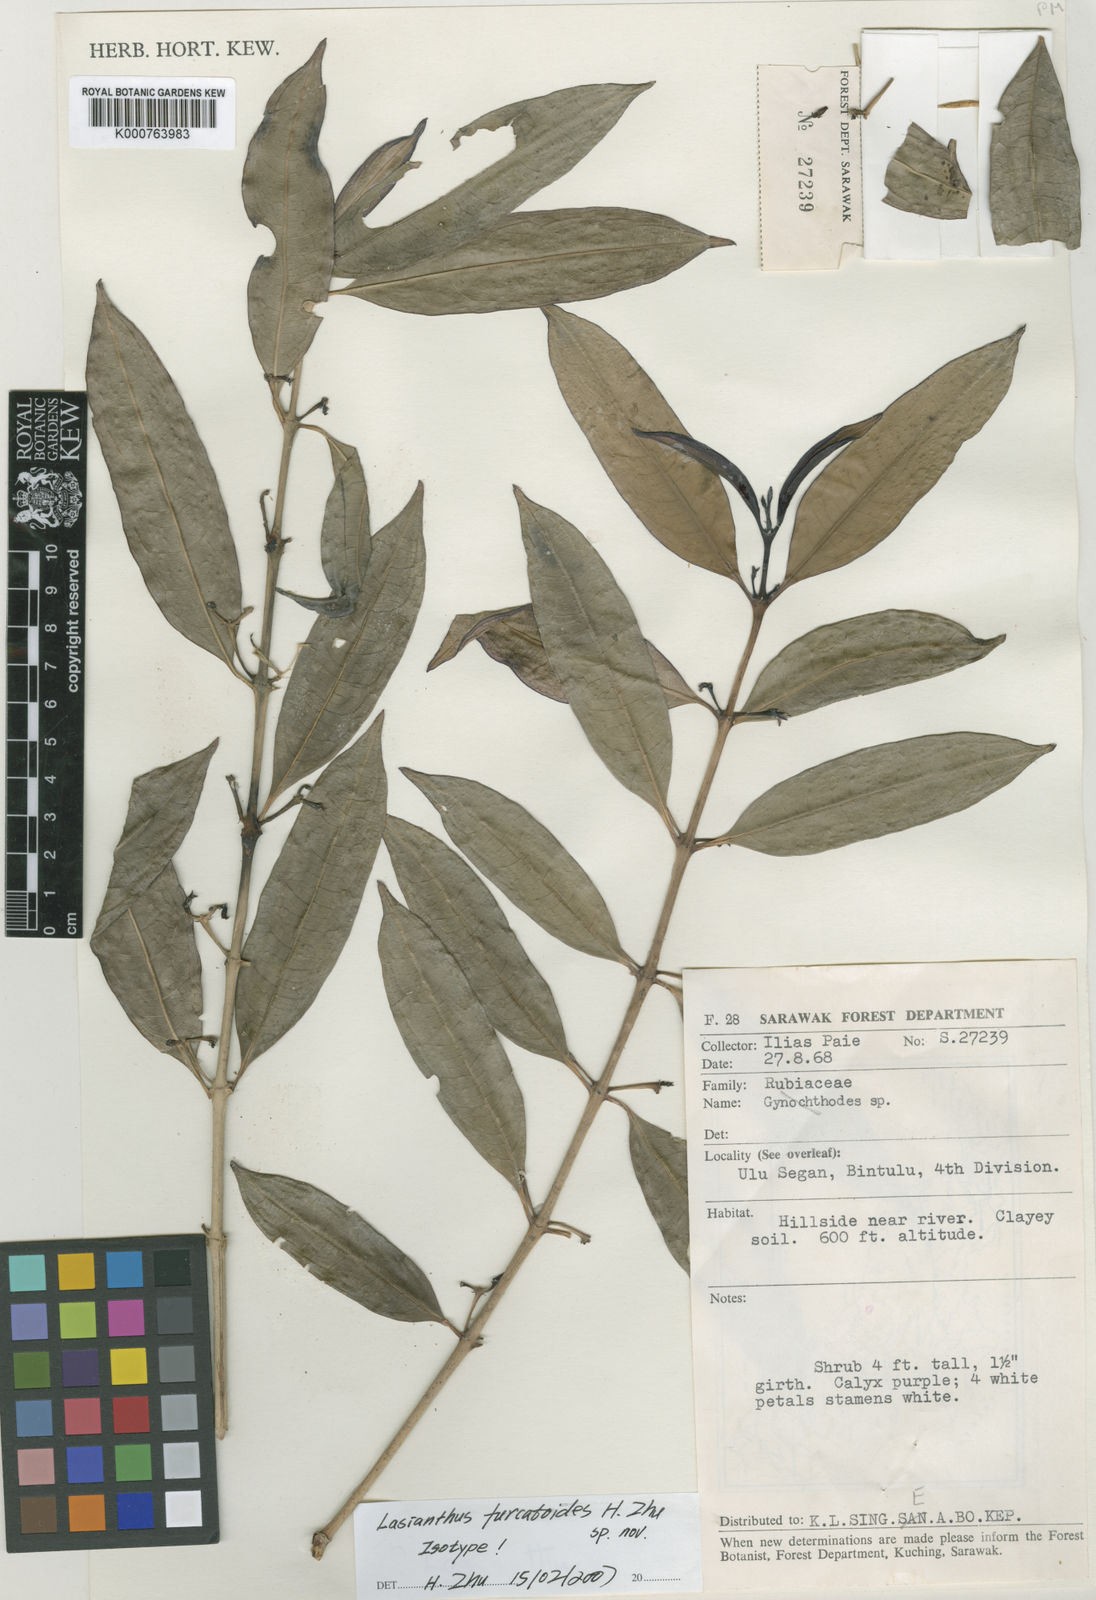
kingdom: Plantae
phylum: Tracheophyta
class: Magnoliopsida
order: Gentianales
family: Rubiaceae
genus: Lasianthus
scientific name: Lasianthus furcatoides
